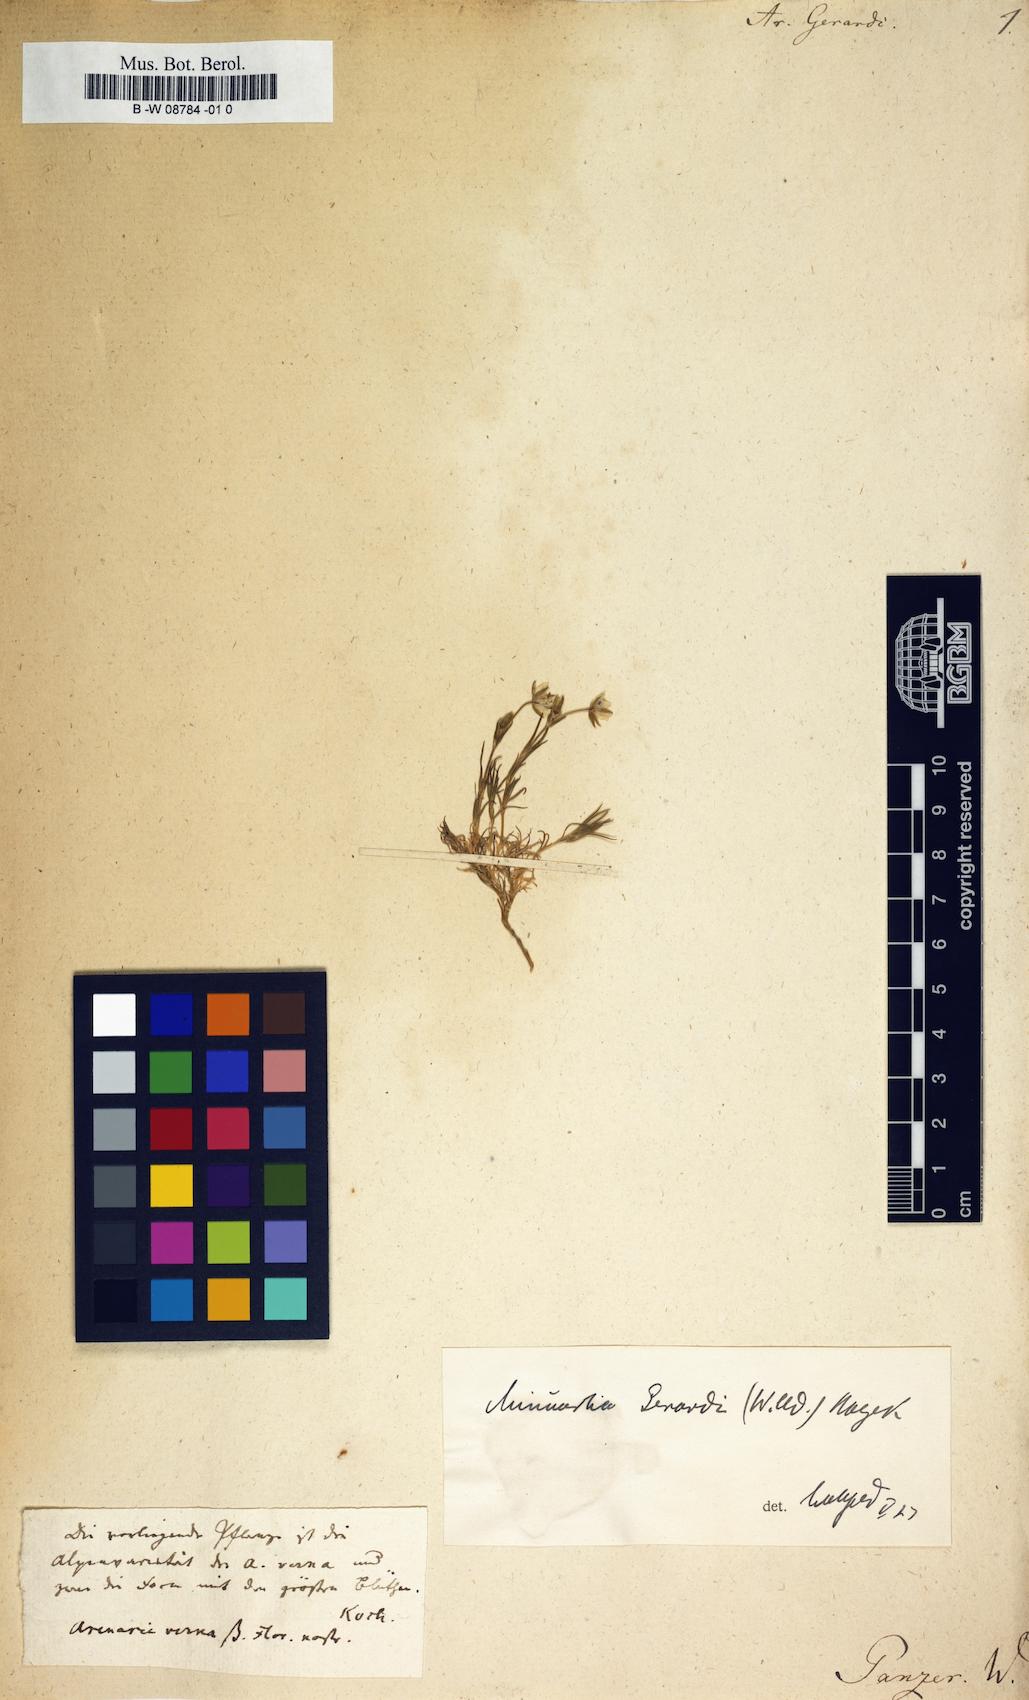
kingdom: Plantae
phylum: Tracheophyta
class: Magnoliopsida
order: Caryophyllales
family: Caryophyllaceae
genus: Sabulina
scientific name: Sabulina verna
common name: Spring sandwort
